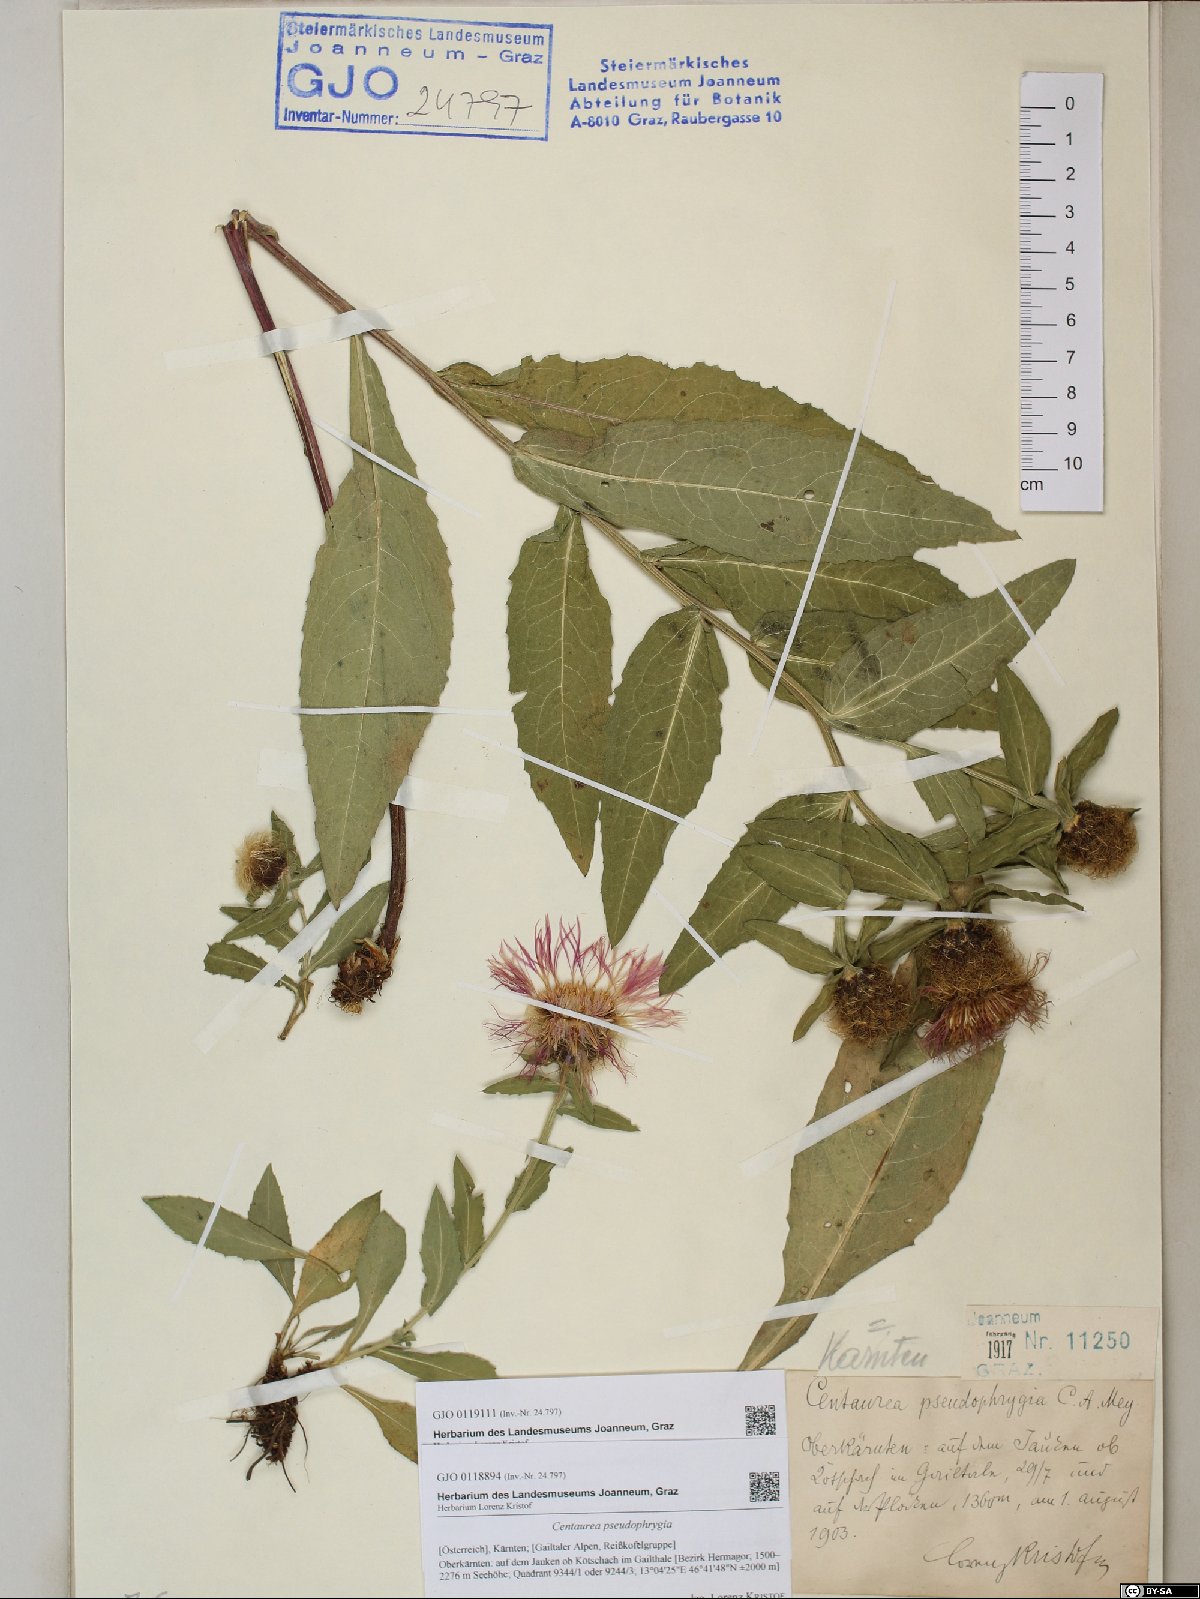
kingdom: Plantae
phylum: Tracheophyta
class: Magnoliopsida
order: Asterales
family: Asteraceae
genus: Centaurea
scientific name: Centaurea pseudophrygia
